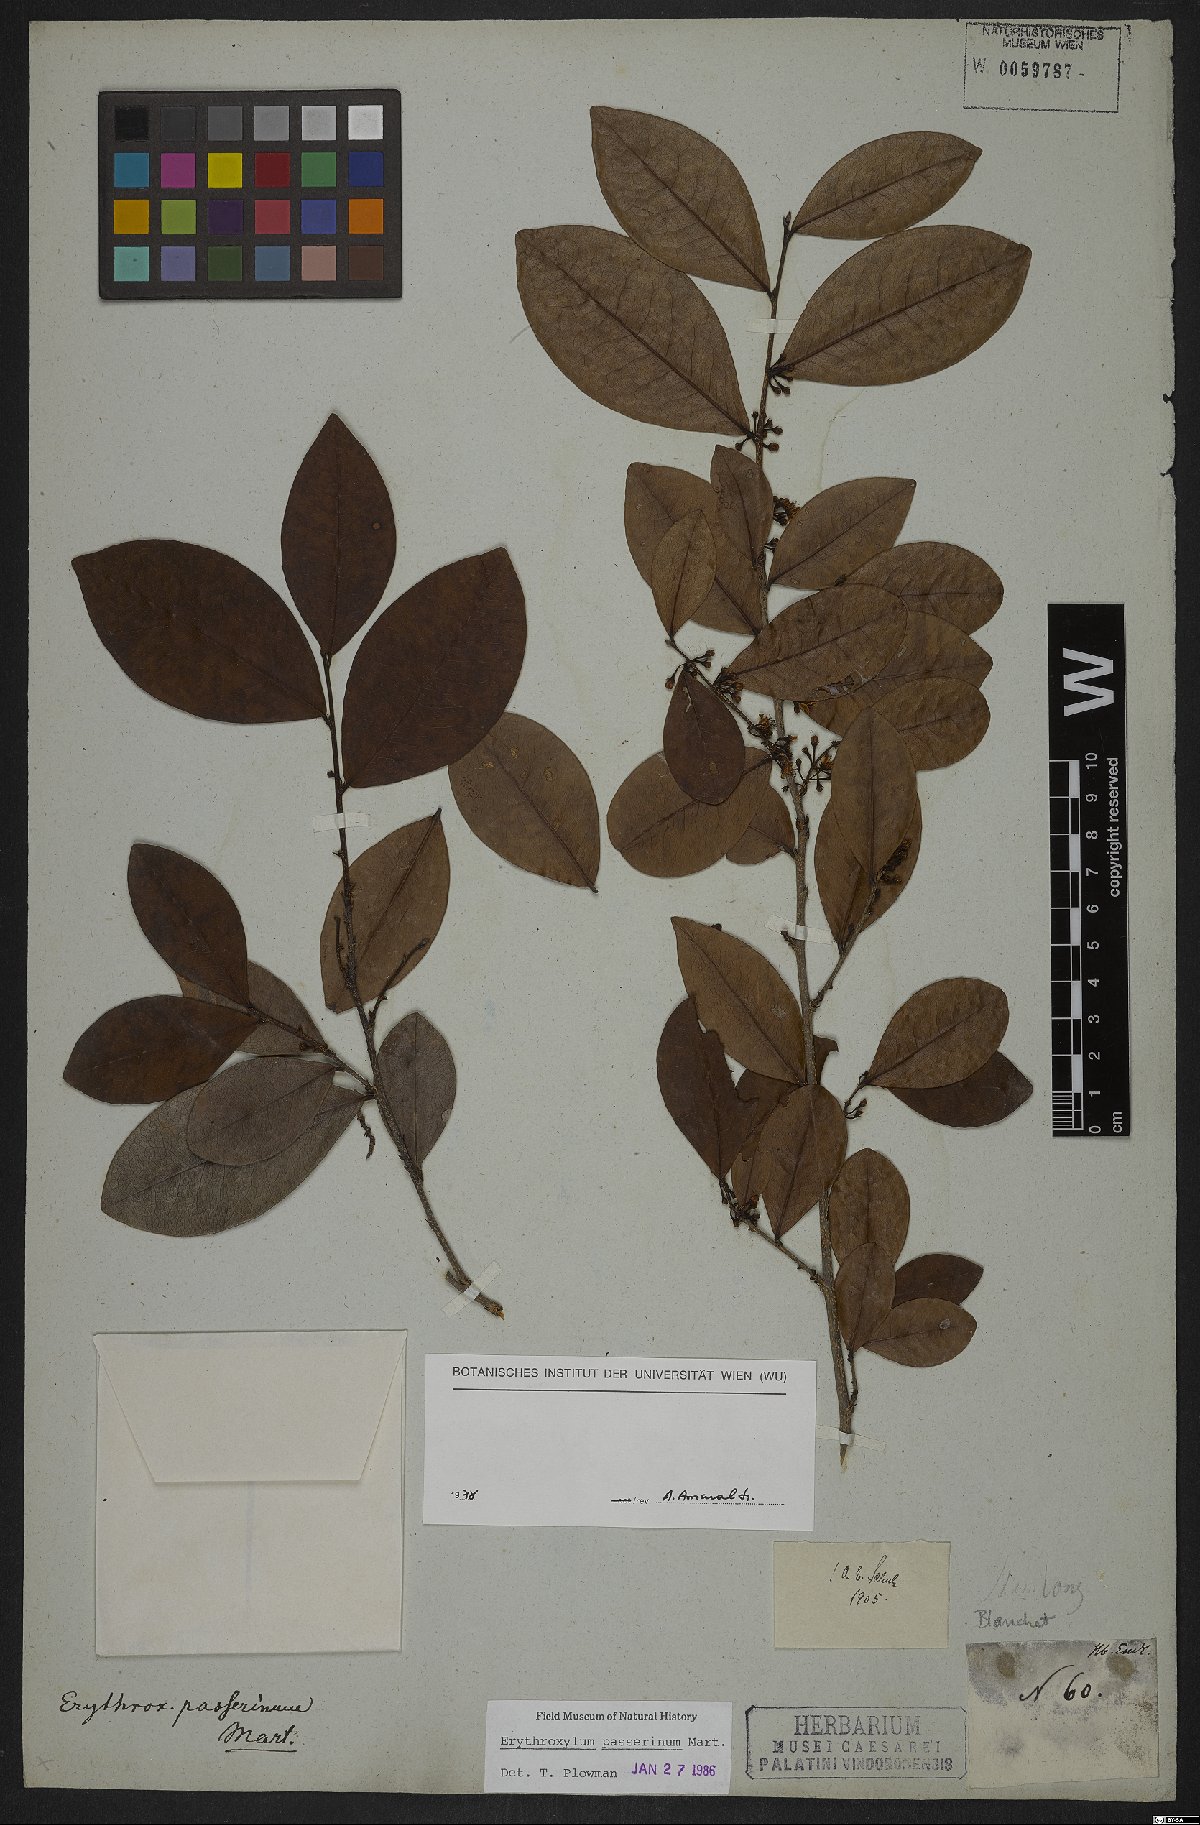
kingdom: Plantae
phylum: Tracheophyta
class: Magnoliopsida
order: Malpighiales
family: Erythroxylaceae
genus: Erythroxylum
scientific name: Erythroxylum passerinum
